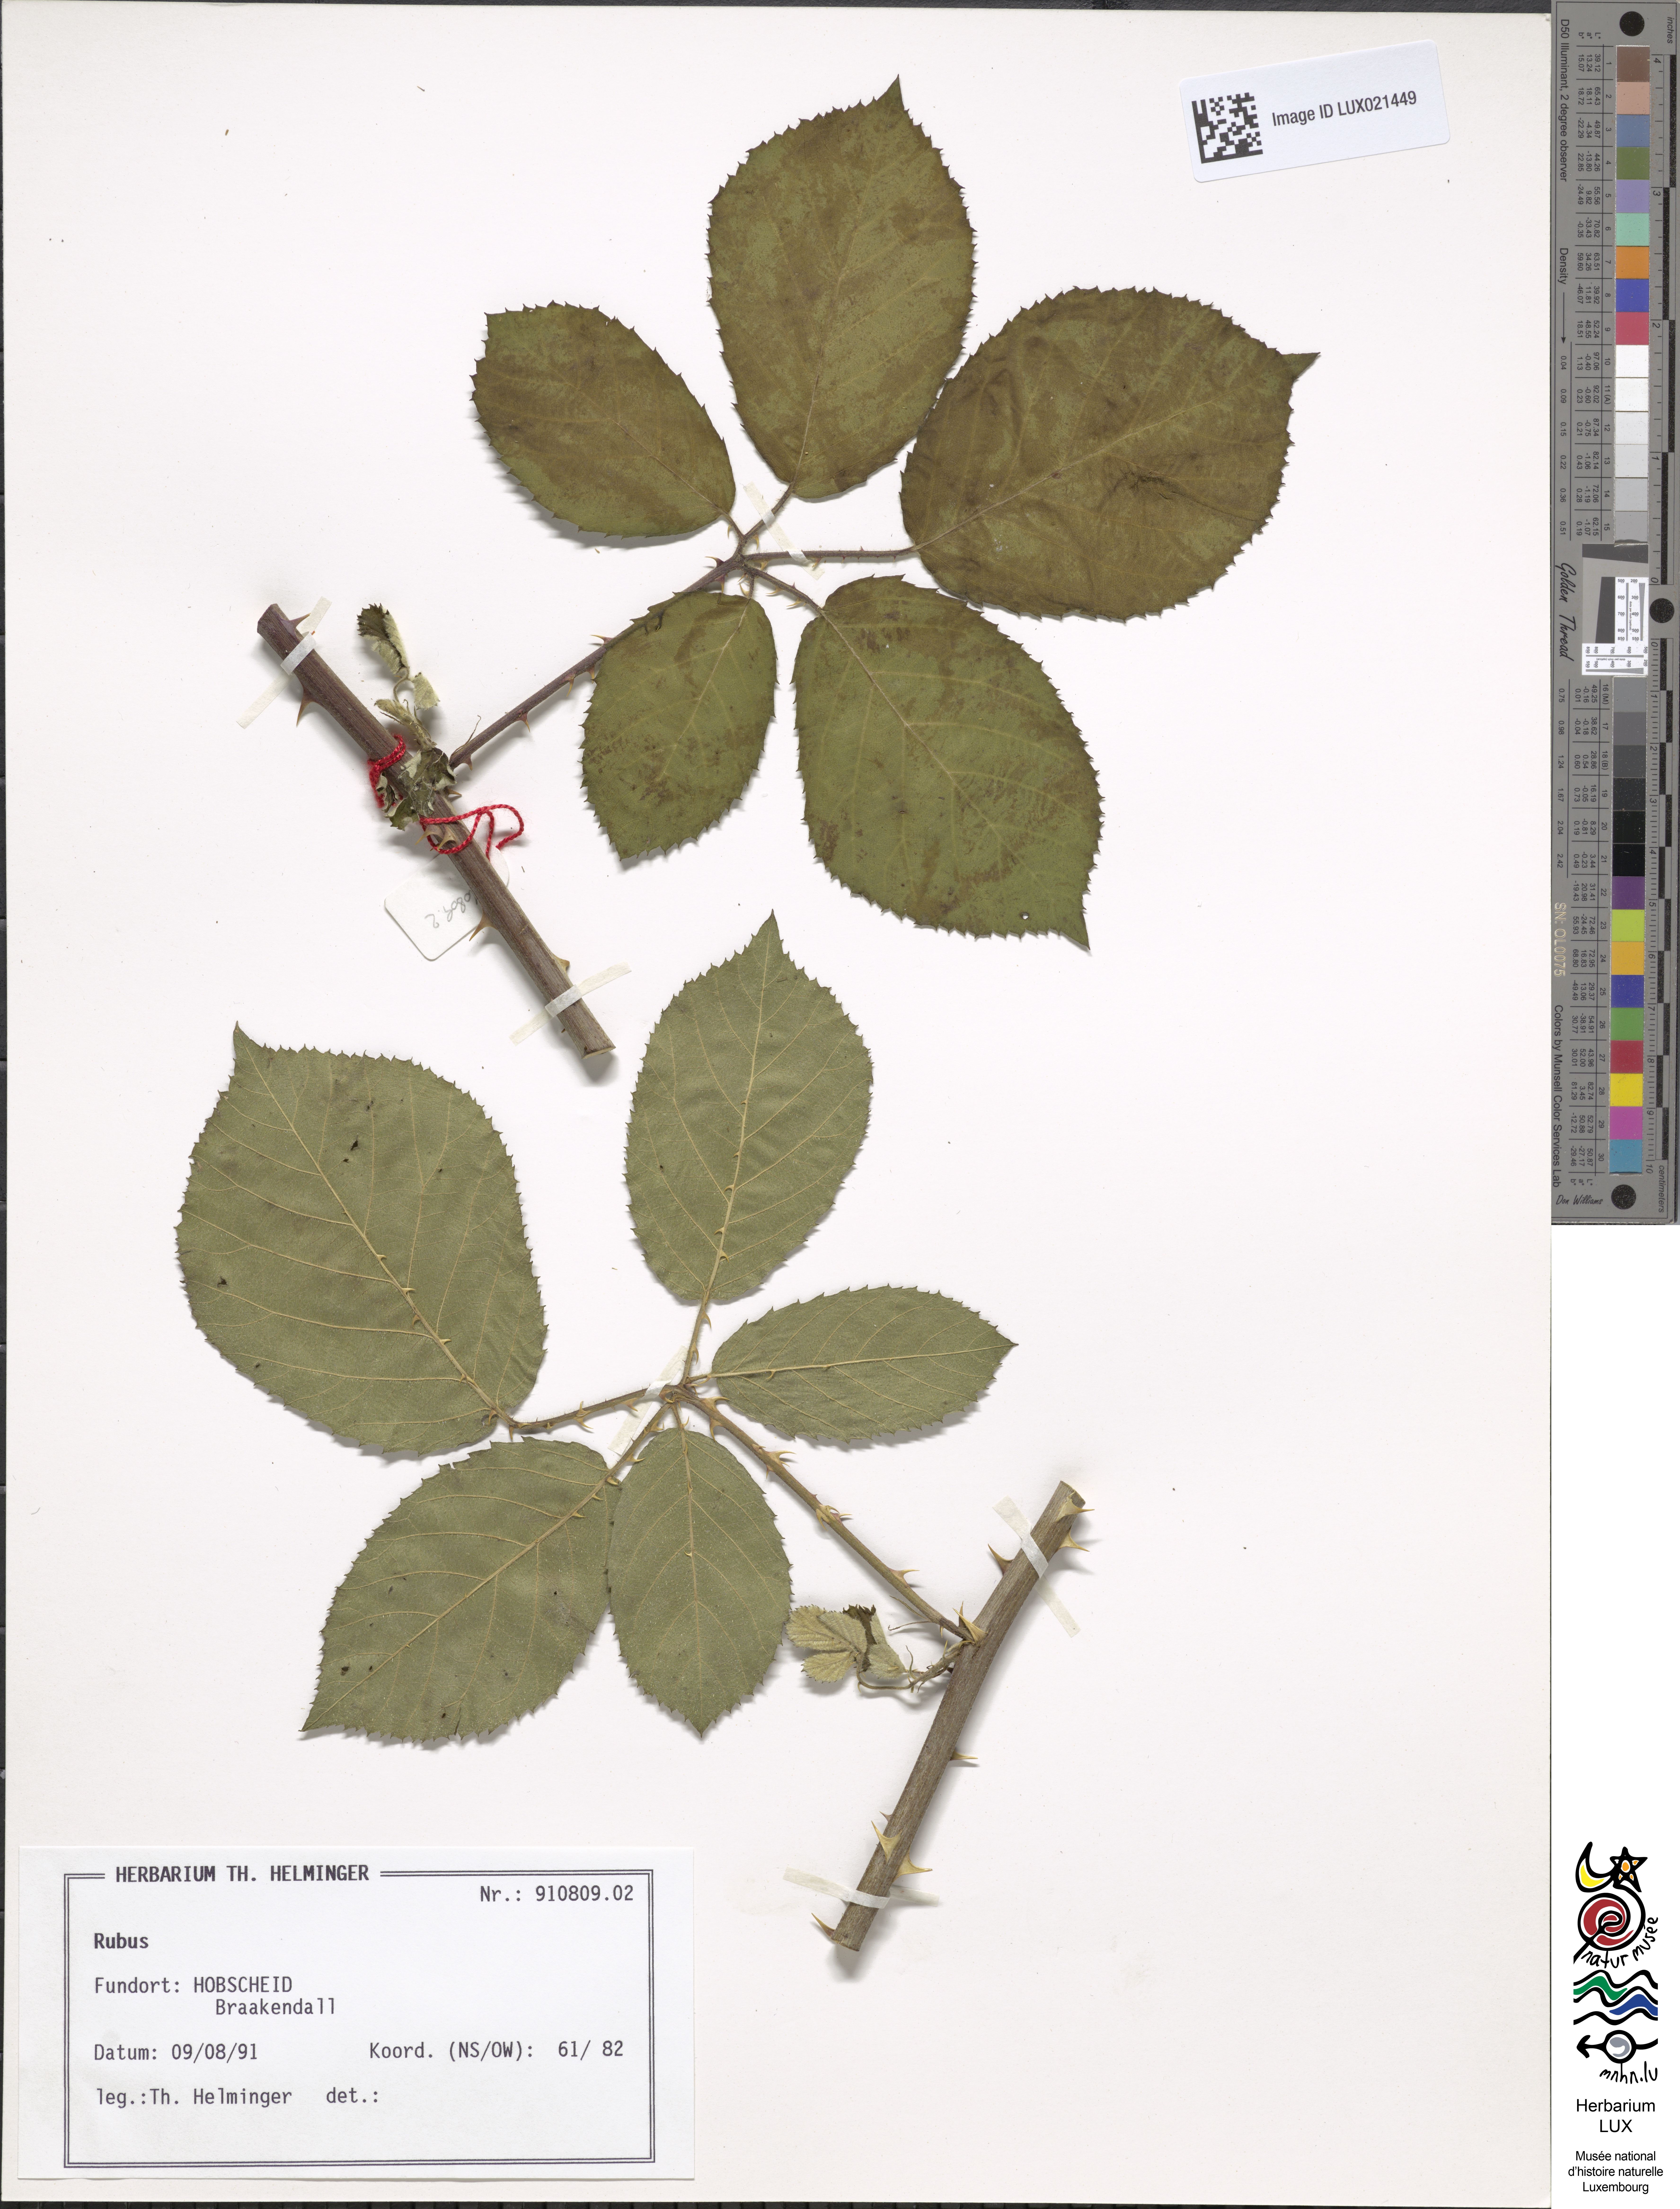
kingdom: Plantae
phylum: Tracheophyta
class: Magnoliopsida
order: Rosales
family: Rosaceae
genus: Rubus
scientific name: Rubus
